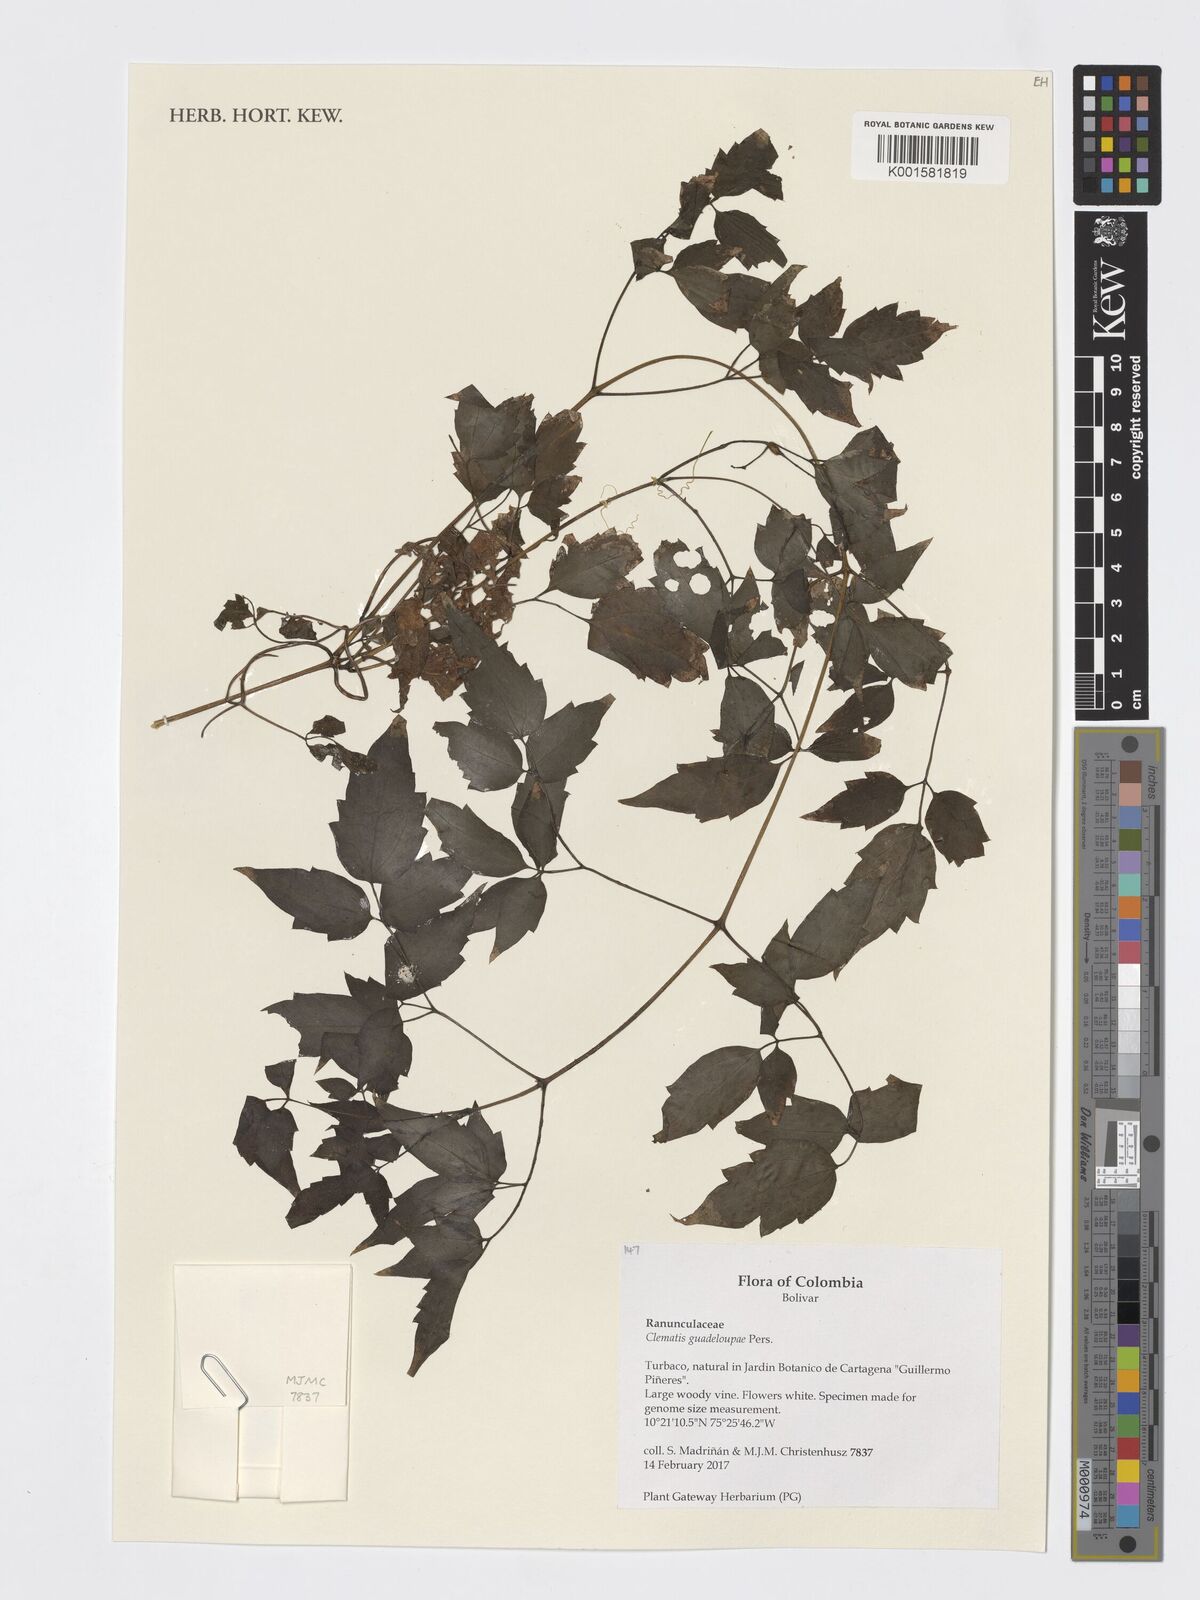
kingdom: Plantae
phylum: Tracheophyta
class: Magnoliopsida
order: Ranunculales
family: Ranunculaceae
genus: Clematis
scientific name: Clematis guadeloupae
